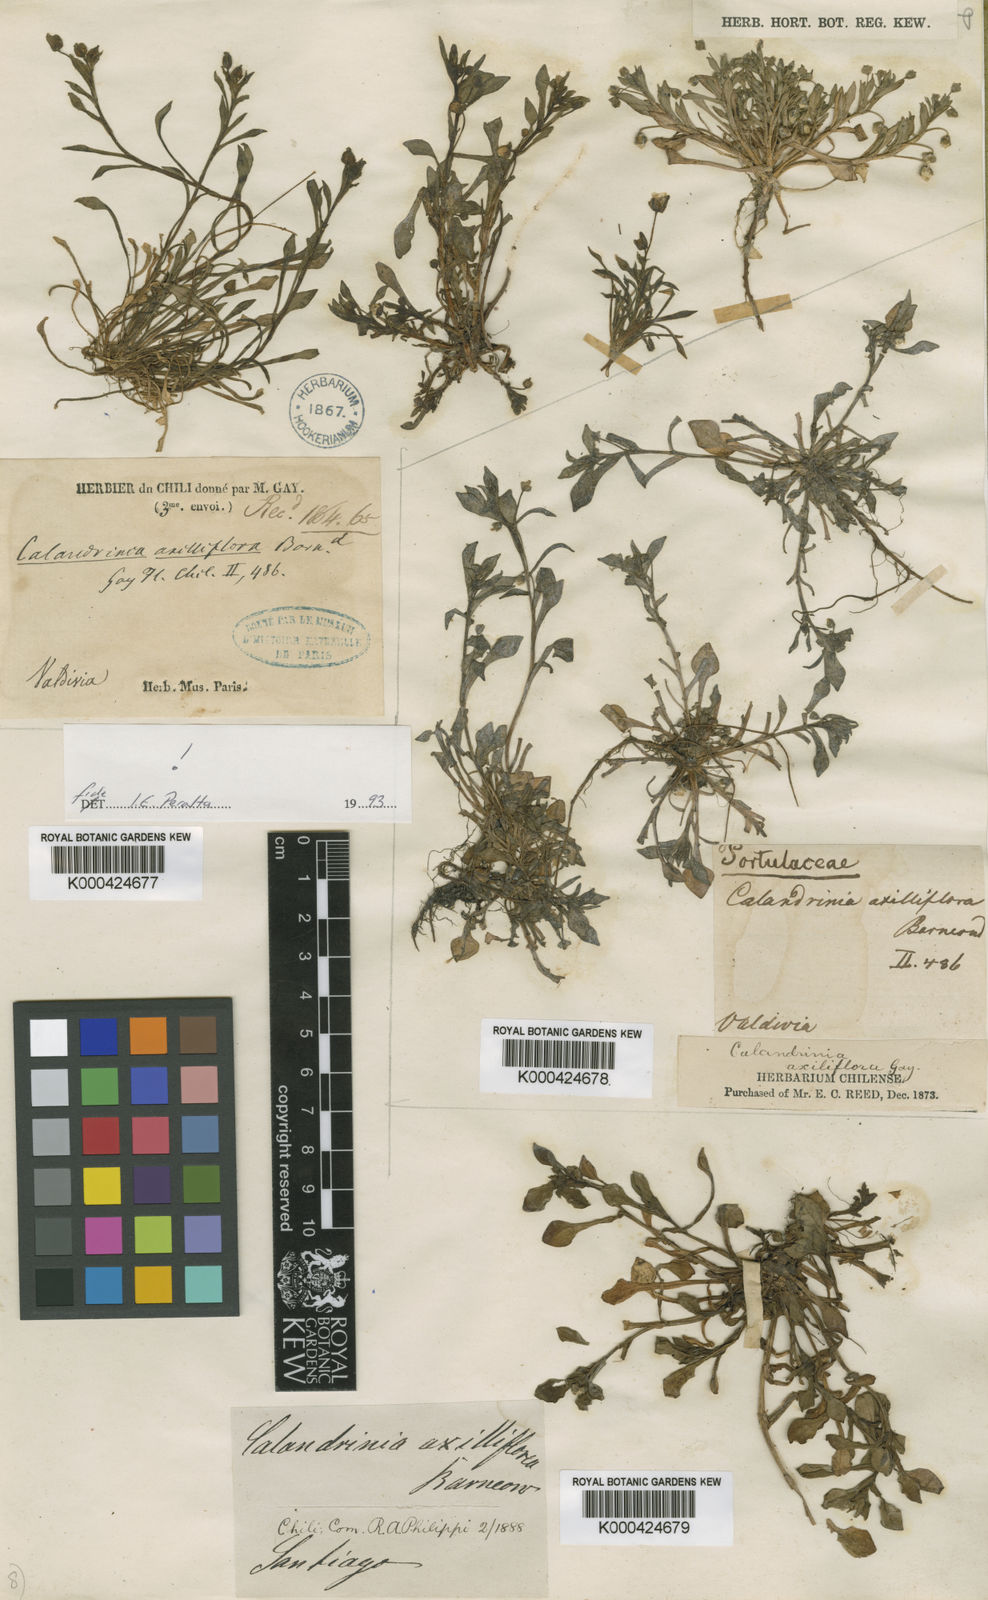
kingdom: Plantae
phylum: Tracheophyta
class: Magnoliopsida
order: Caryophyllales
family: Montiaceae
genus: Calandrinia
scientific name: Calandrinia
